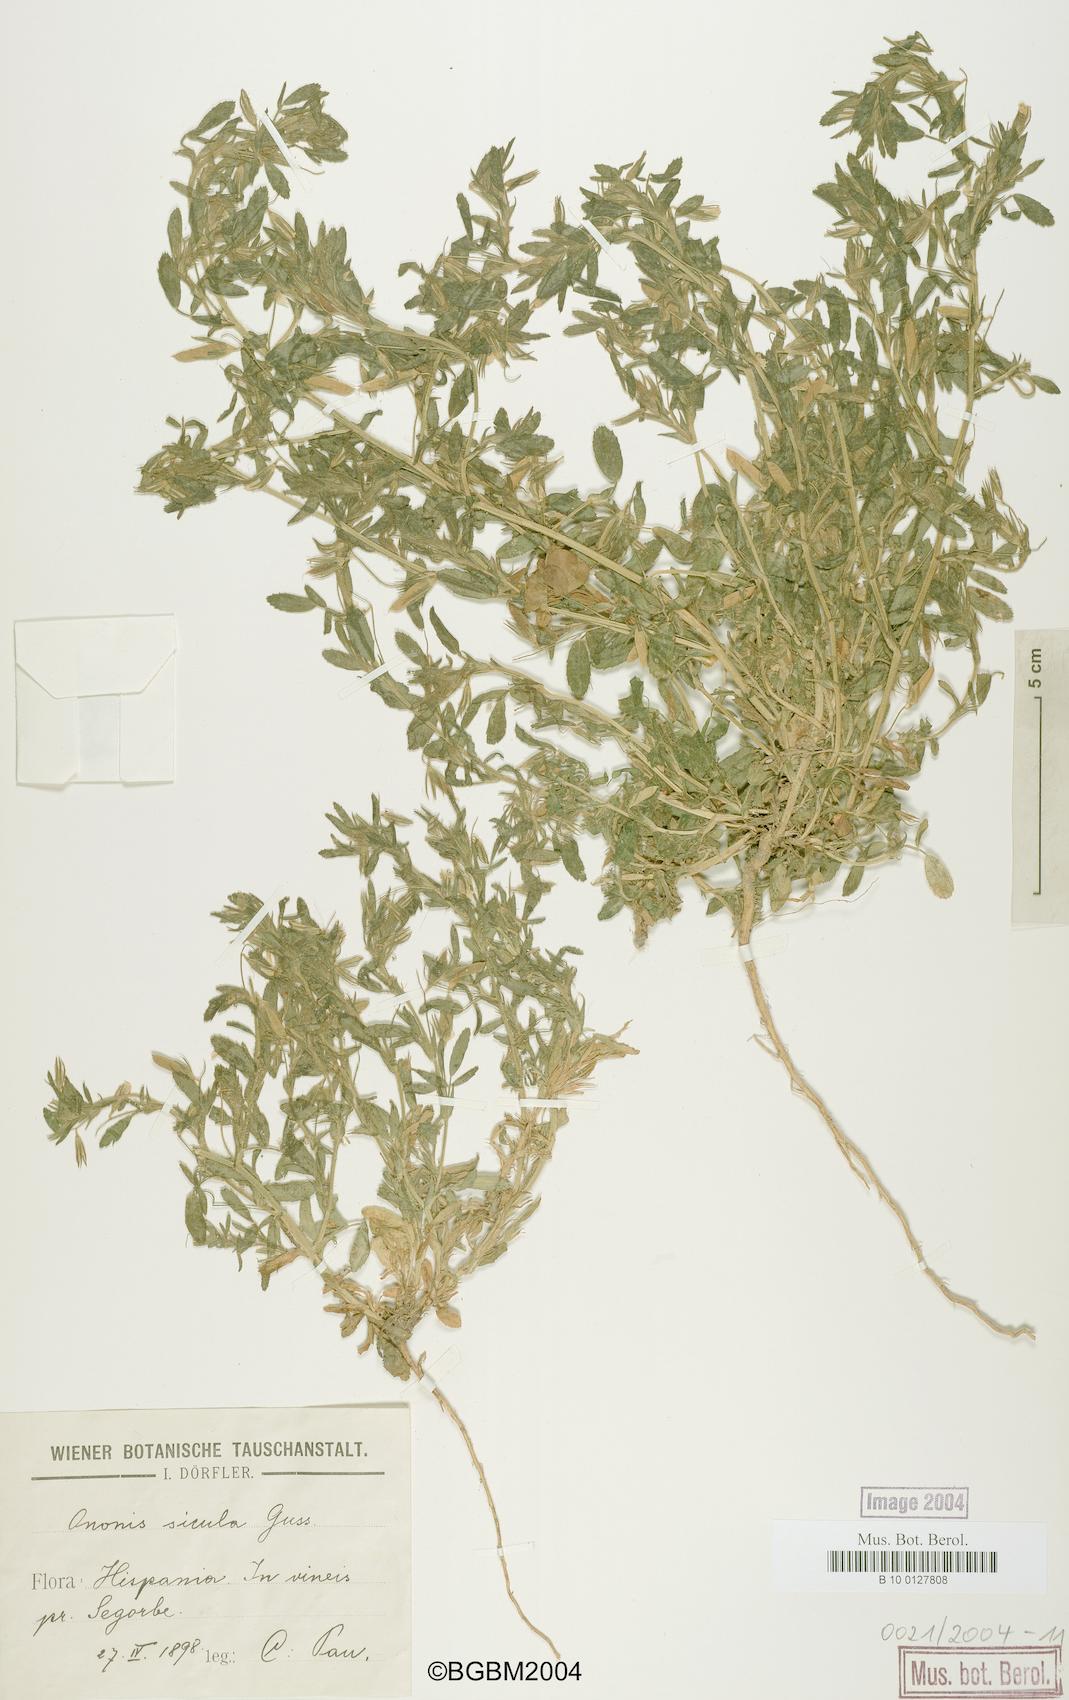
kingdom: Plantae
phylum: Tracheophyta
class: Magnoliopsida
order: Fabales
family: Fabaceae
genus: Ononis
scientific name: Ononis sicula
